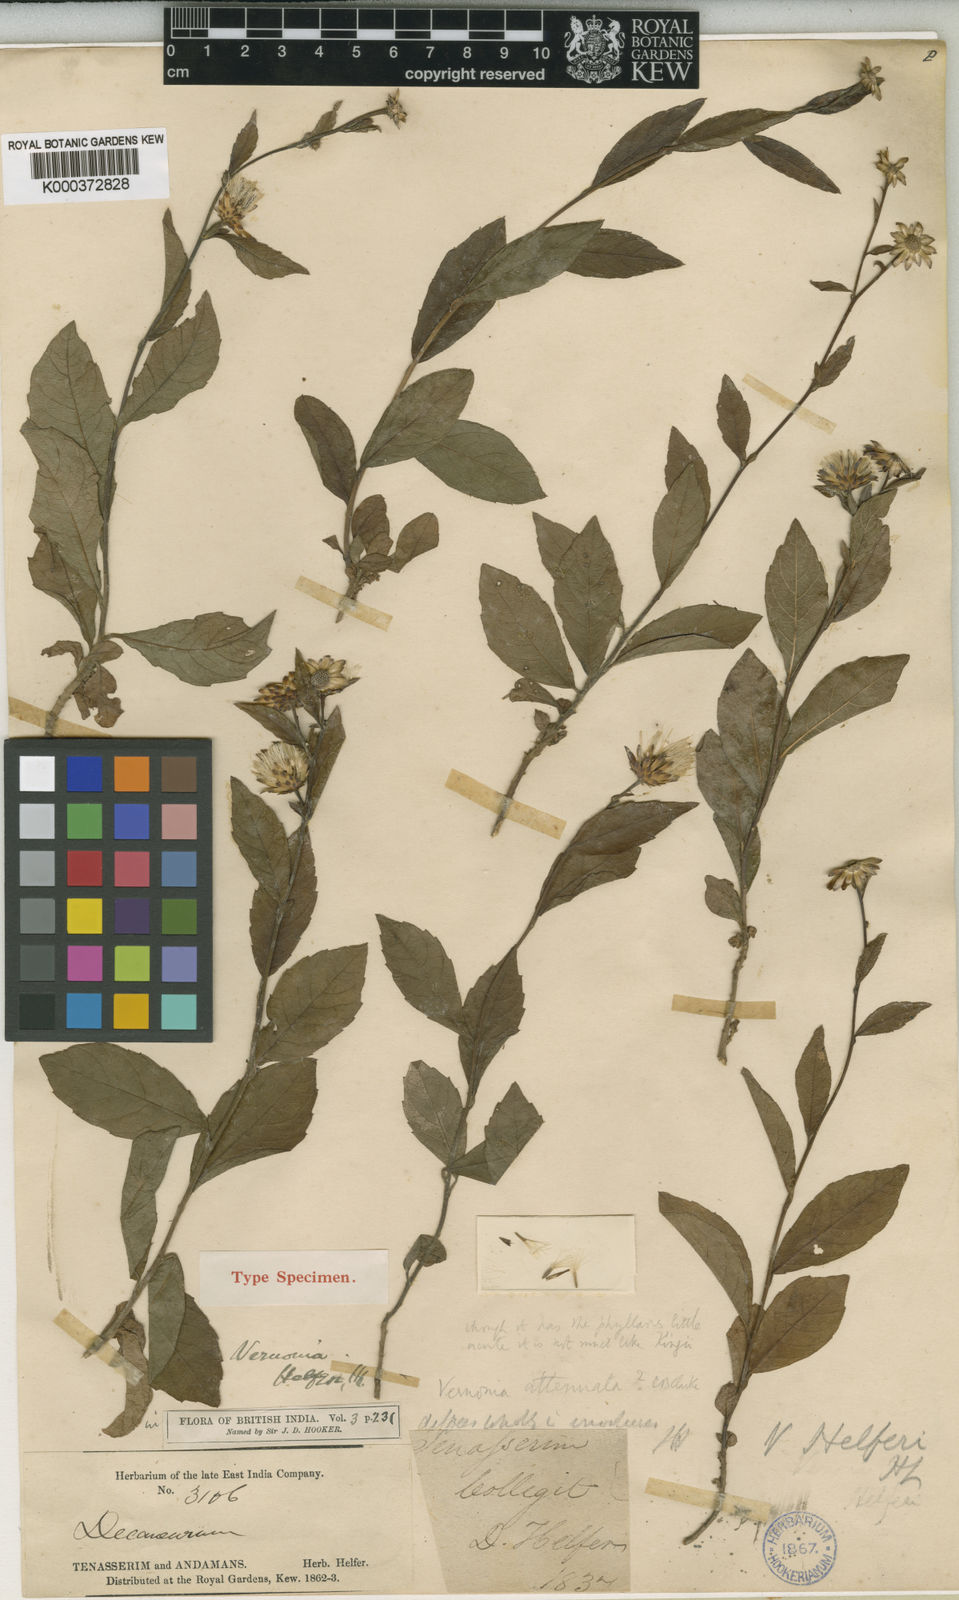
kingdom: Plantae
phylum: Tracheophyta
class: Magnoliopsida
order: Asterales
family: Asteraceae
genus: Vernonia
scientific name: Vernonia helferi
